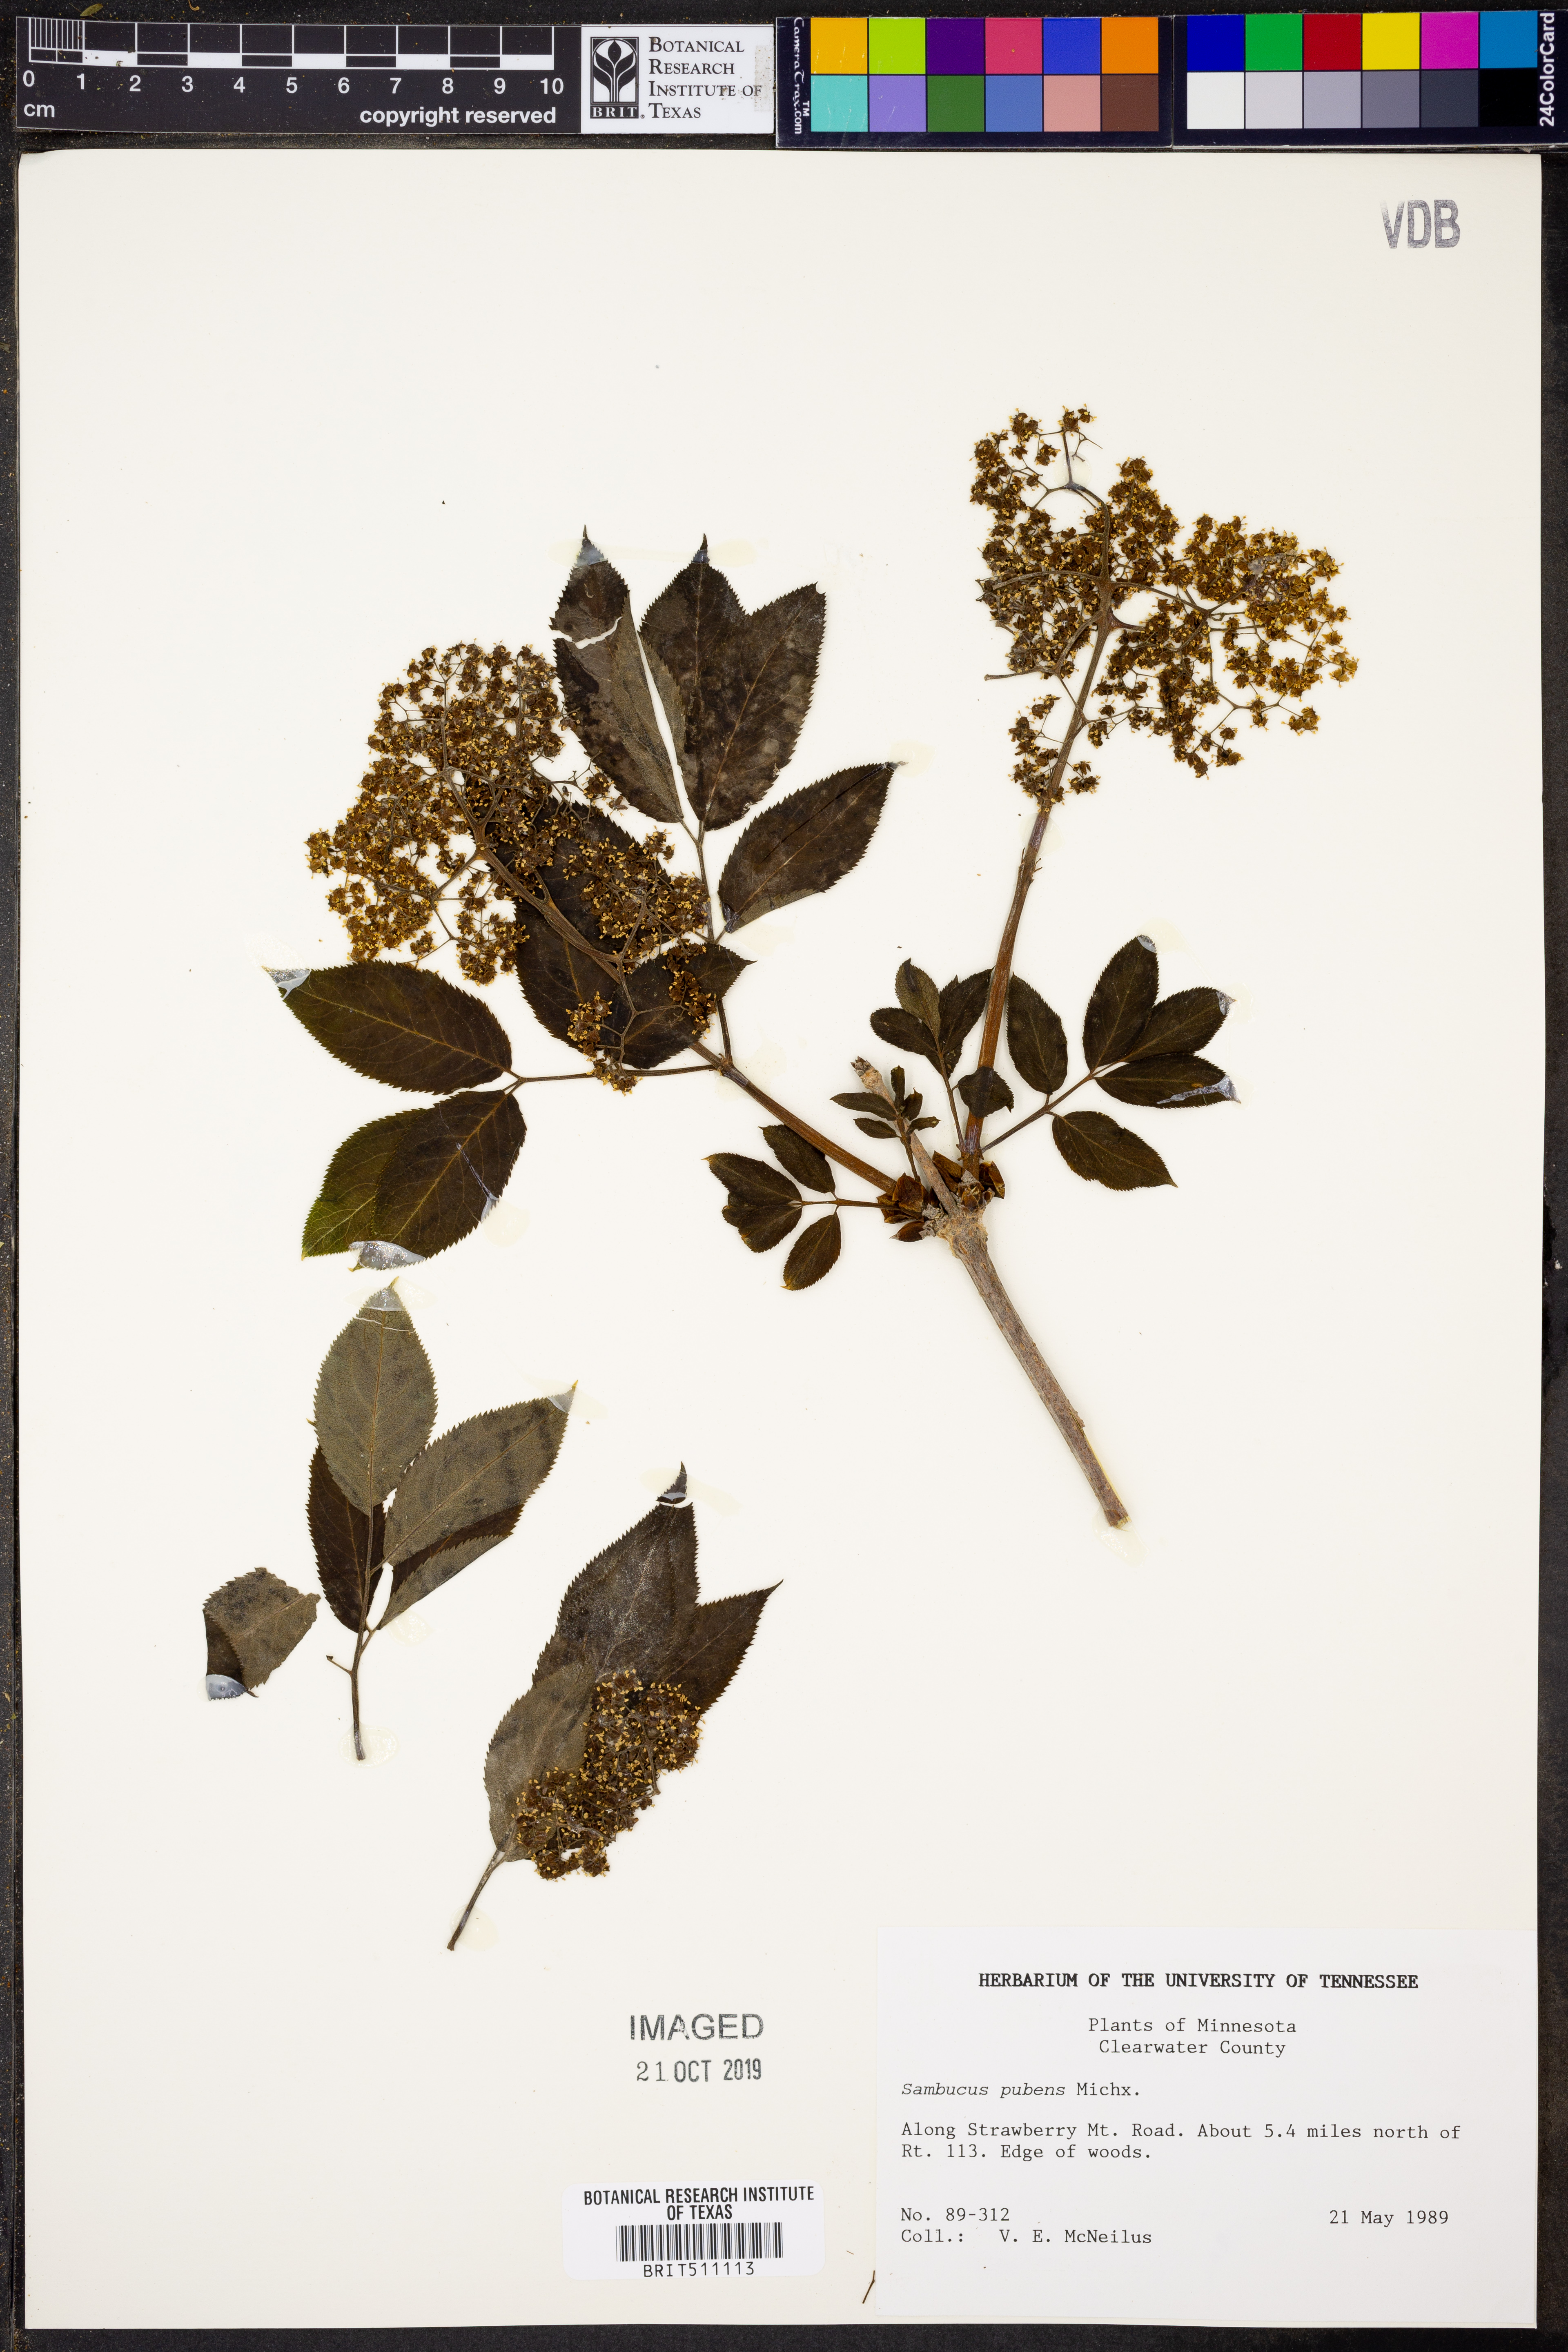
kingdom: Plantae
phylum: Tracheophyta
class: Magnoliopsida
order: Dipsacales
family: Viburnaceae
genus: Sambucus
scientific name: Sambucus racemosa
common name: Red-berried elder
